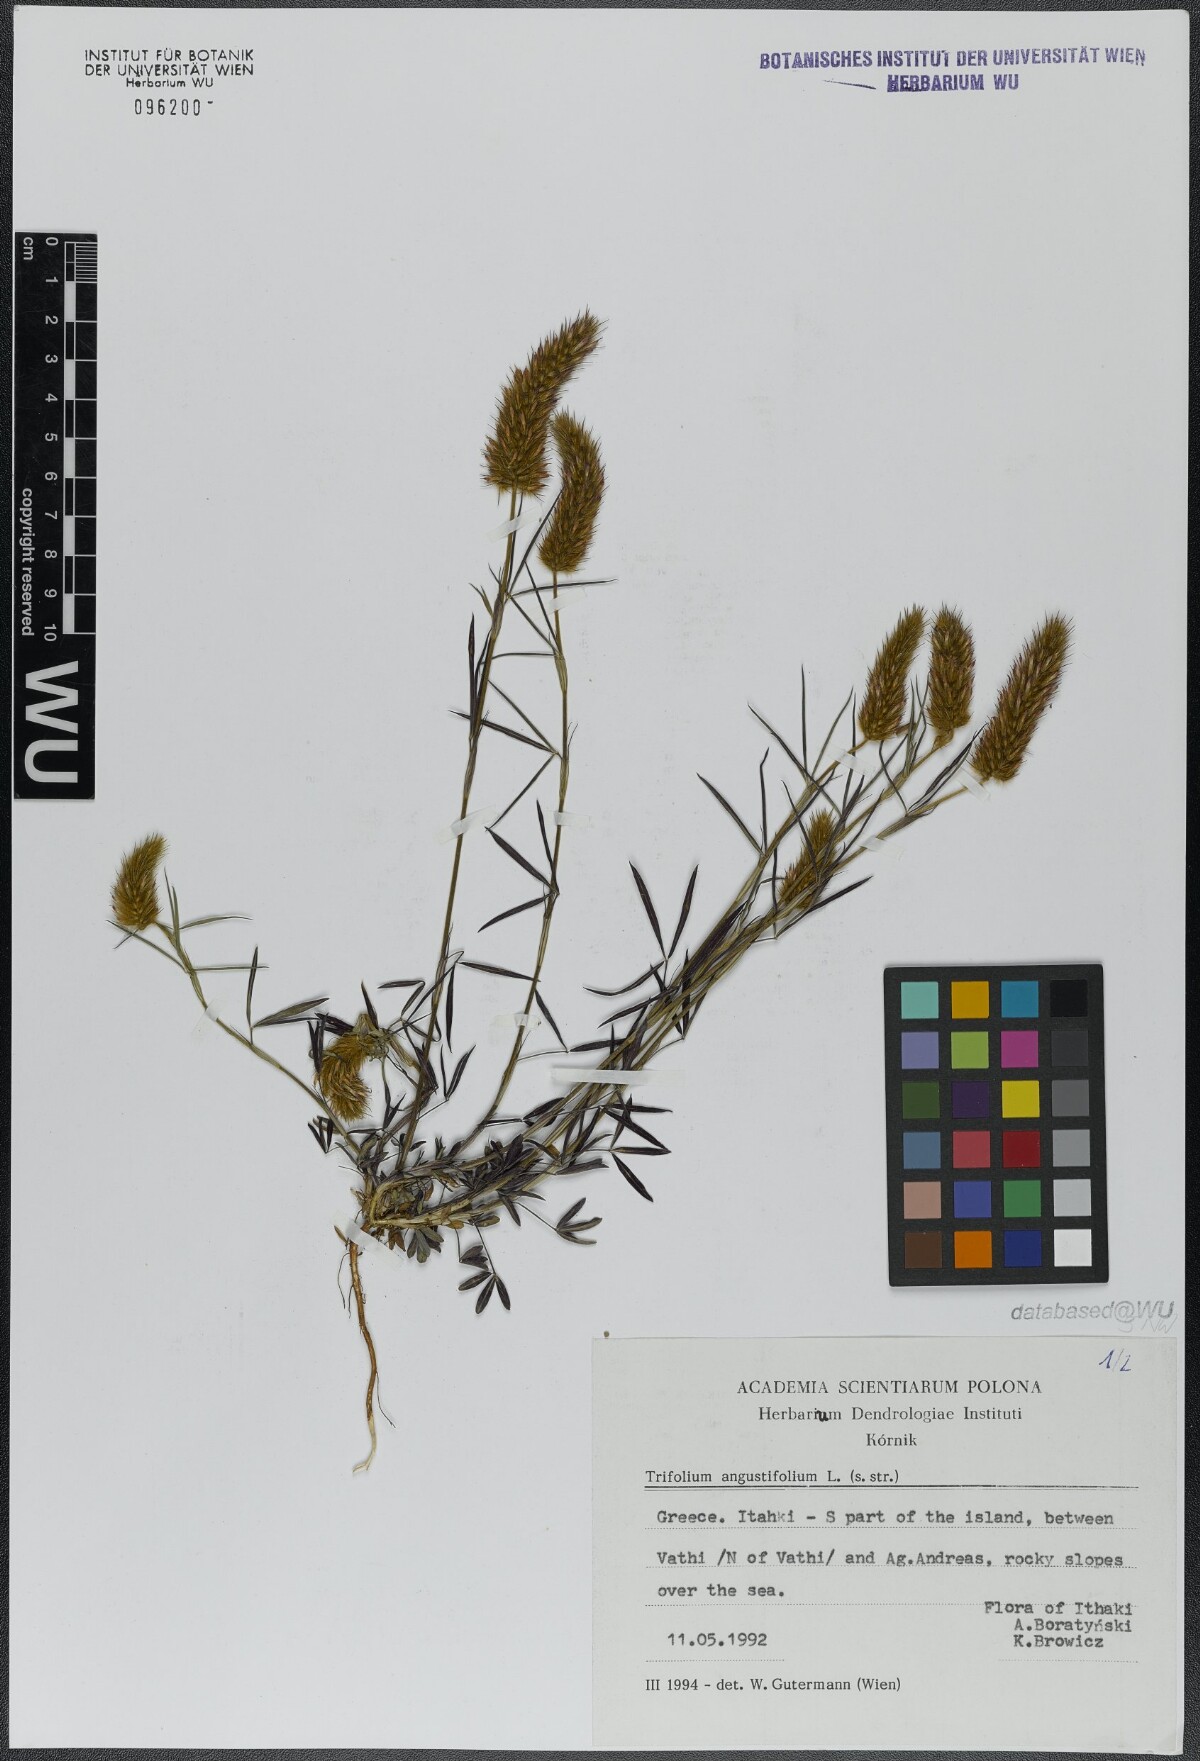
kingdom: Plantae
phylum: Tracheophyta
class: Magnoliopsida
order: Fabales
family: Fabaceae
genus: Trifolium
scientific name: Trifolium angustifolium
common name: Narrow clover
